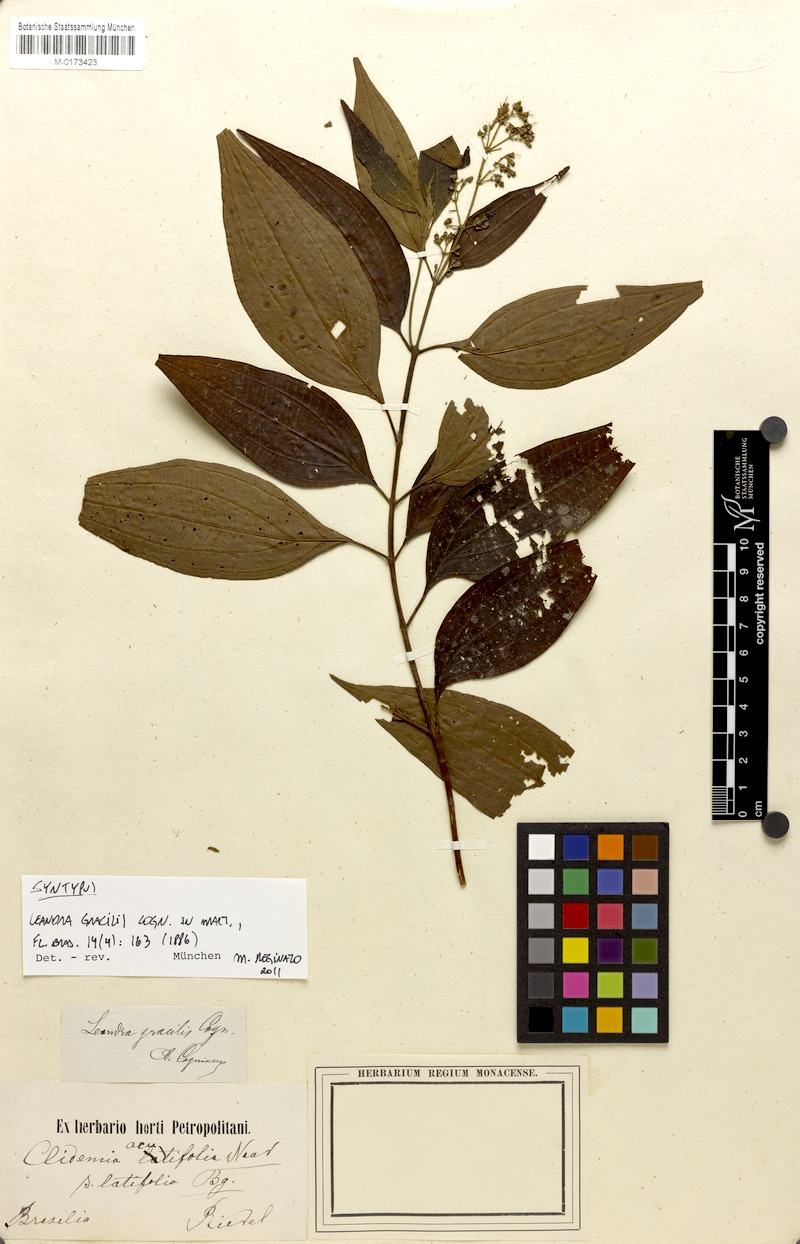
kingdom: Plantae
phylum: Tracheophyta
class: Magnoliopsida
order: Myrtales
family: Melastomataceae
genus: Miconia
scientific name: Miconia leagracilis
